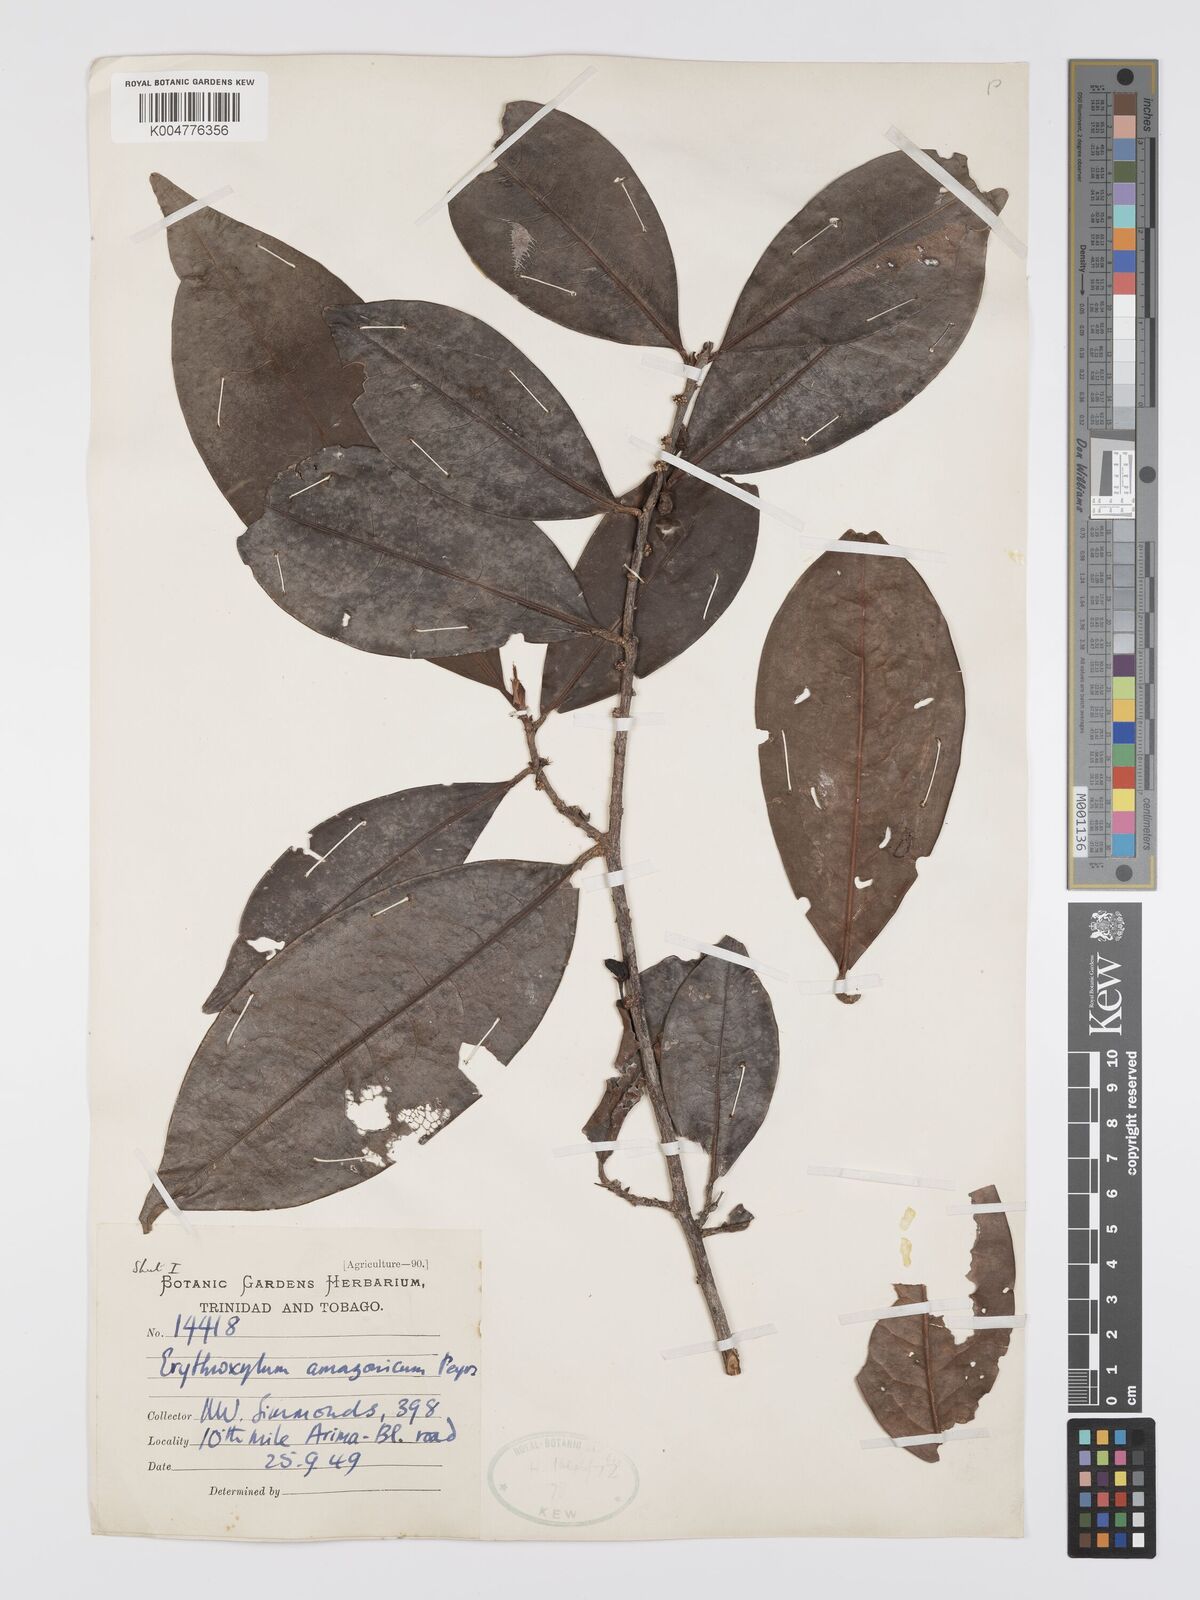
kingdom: Plantae
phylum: Tracheophyta
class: Magnoliopsida
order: Malpighiales
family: Erythroxylaceae
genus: Erythroxylum
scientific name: Erythroxylum amazonicum
